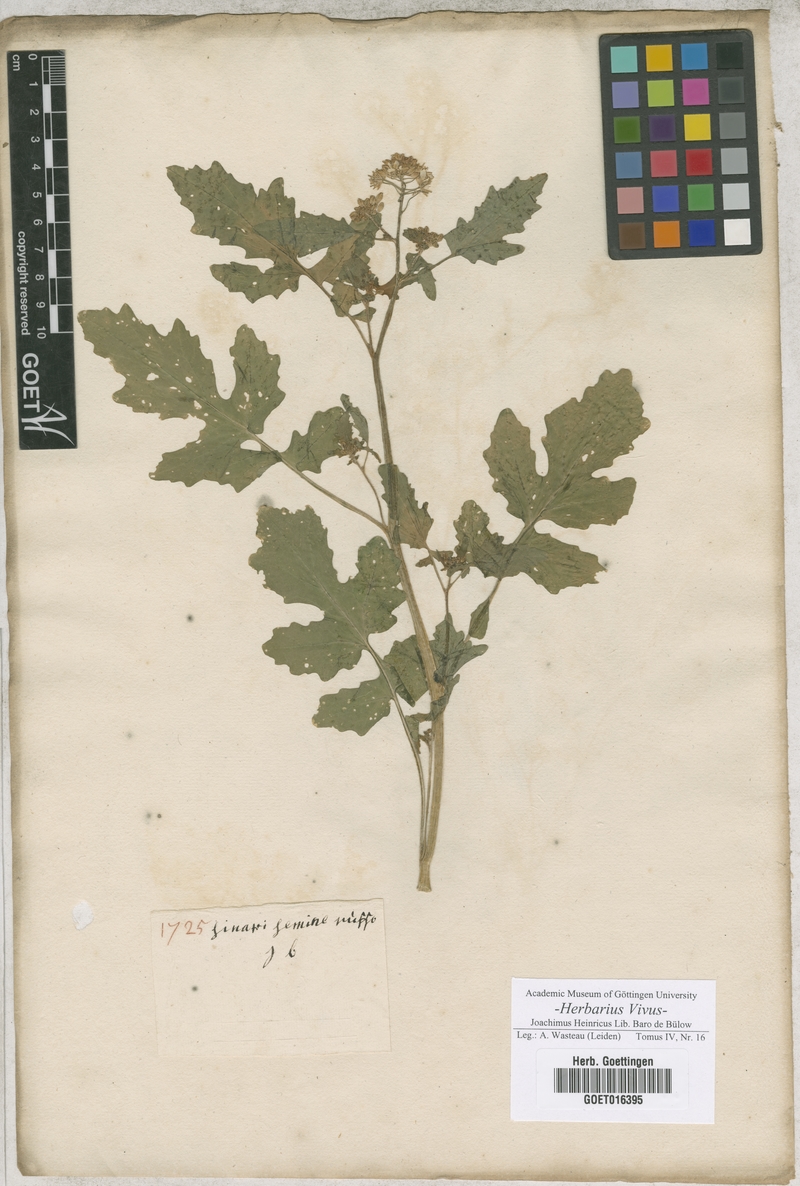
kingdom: Plantae
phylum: Tracheophyta
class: Magnoliopsida
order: Brassicales
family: Brassicaceae
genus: Sinapi
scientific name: Sinapi
